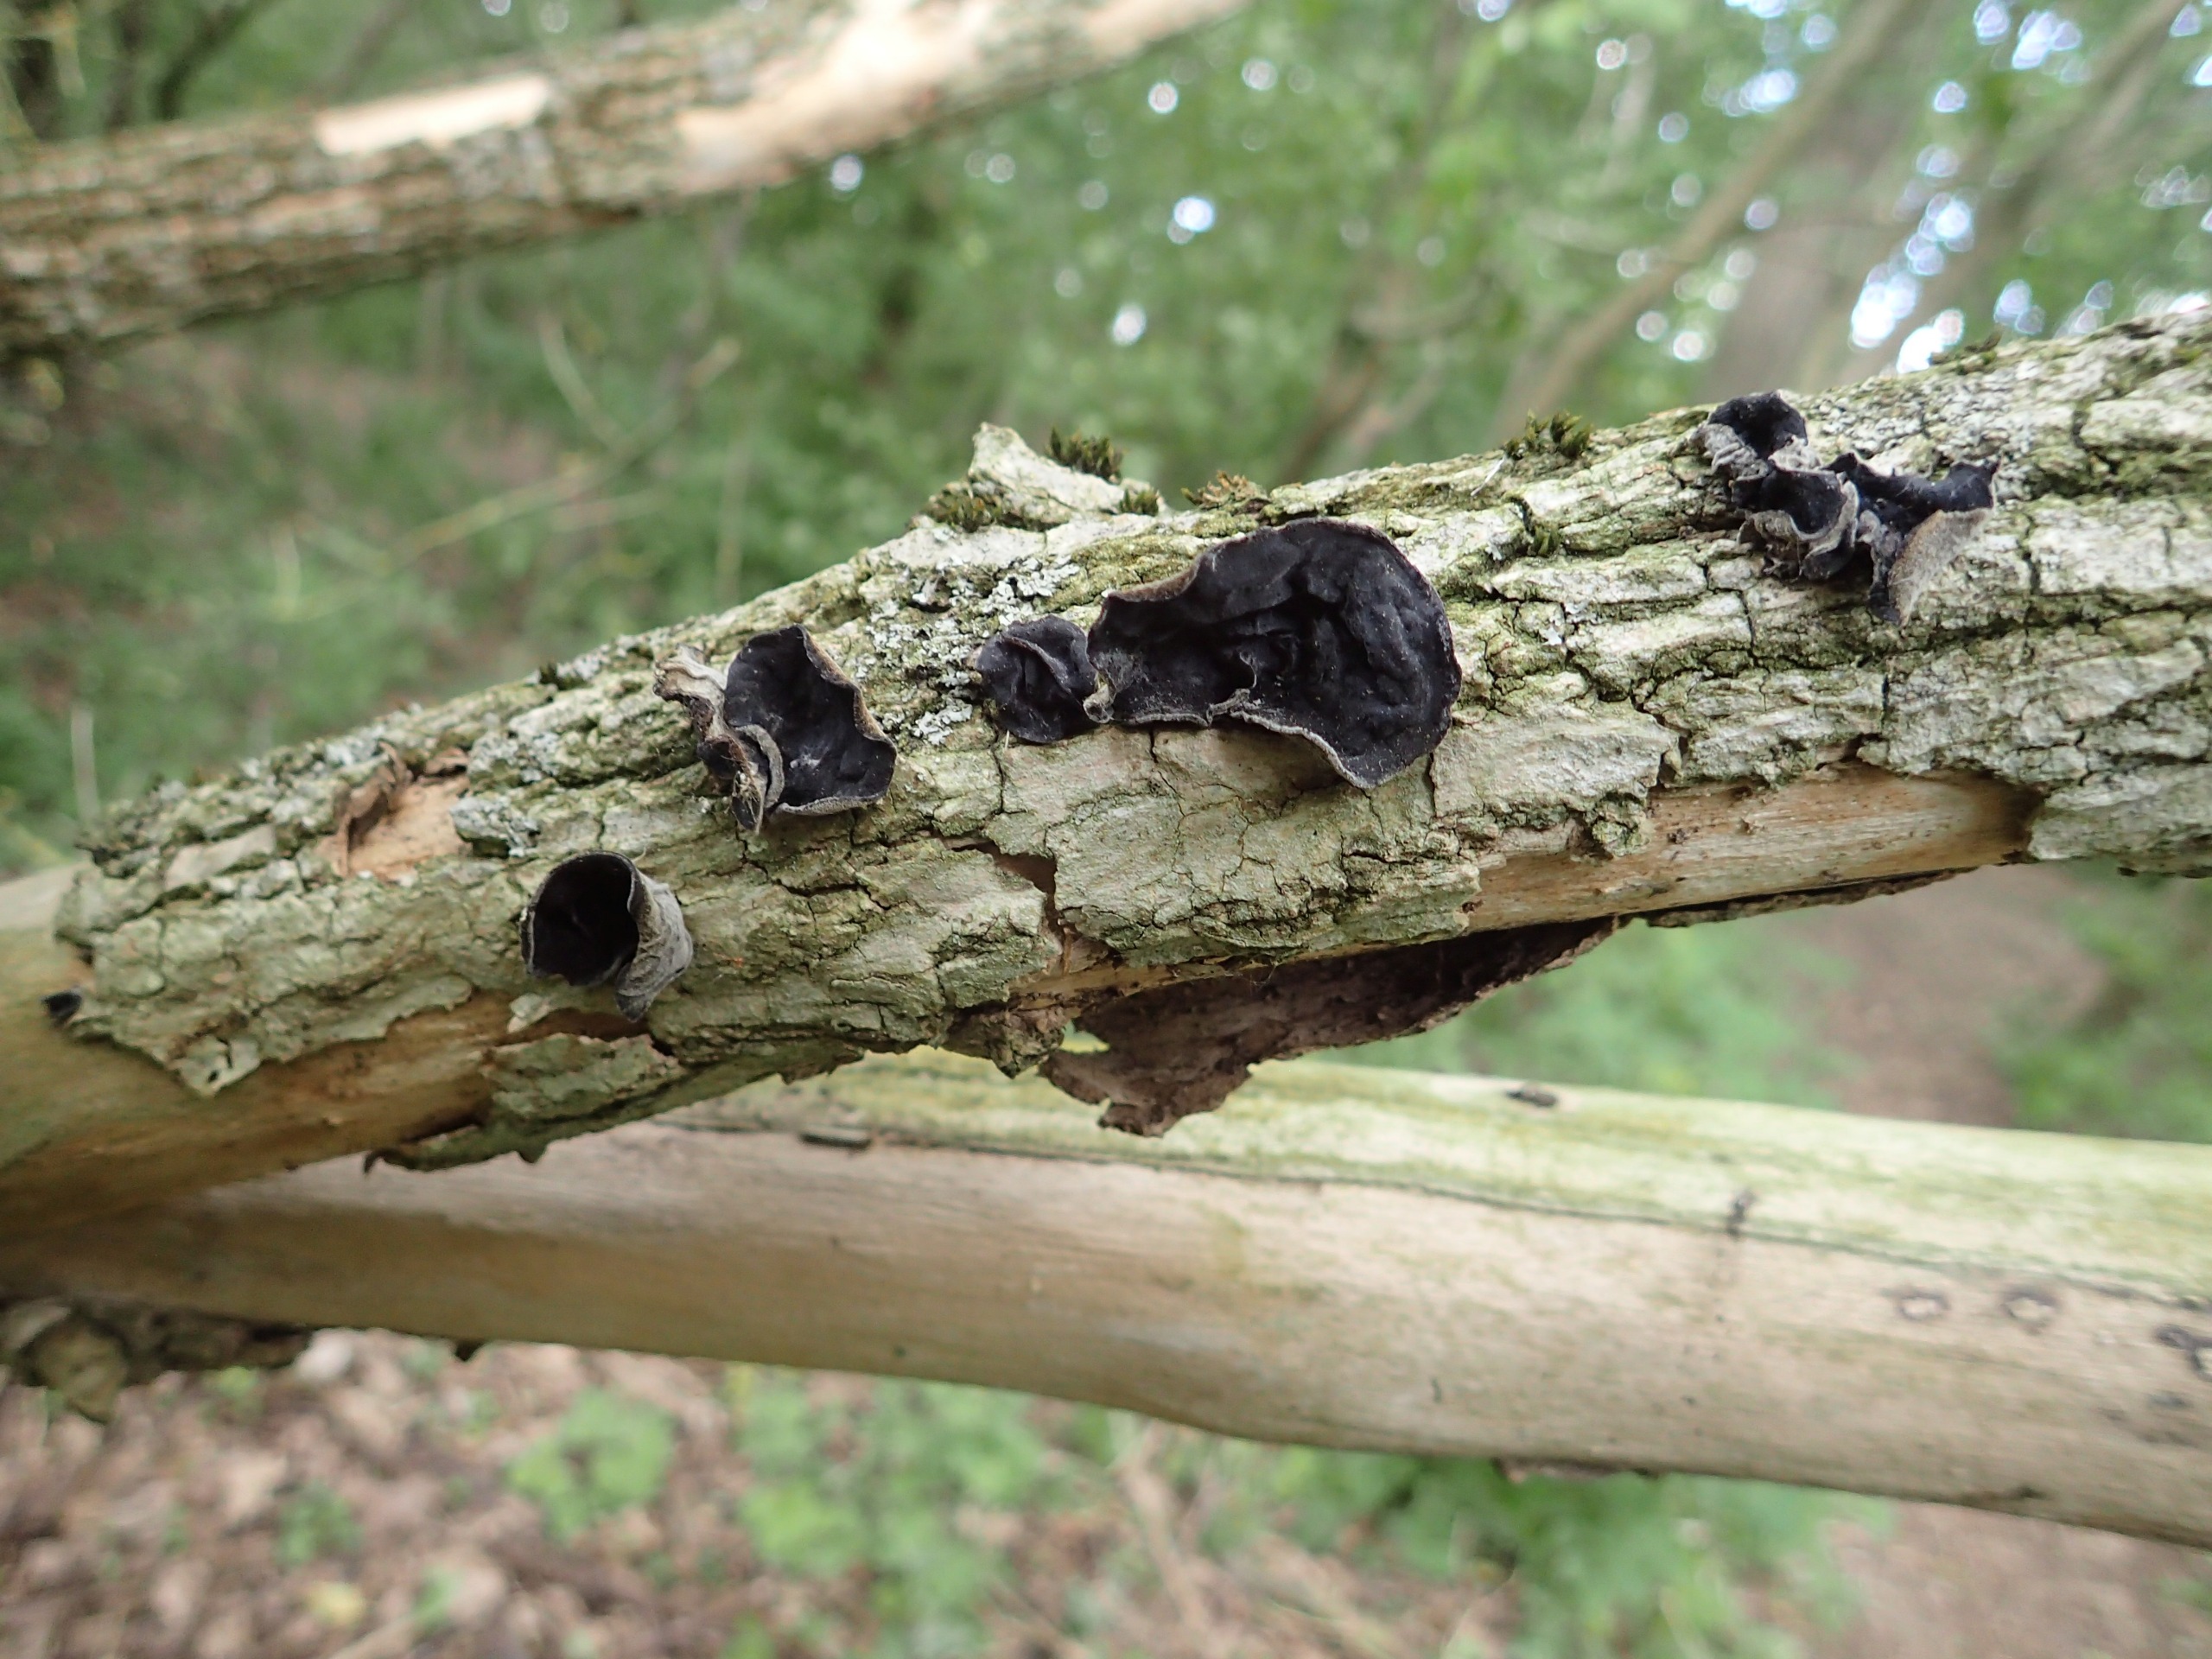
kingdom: Fungi
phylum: Basidiomycota
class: Agaricomycetes
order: Auriculariales
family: Auriculariaceae
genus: Auricularia
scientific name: Auricularia auricula-judae
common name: Almindelig judasøre
